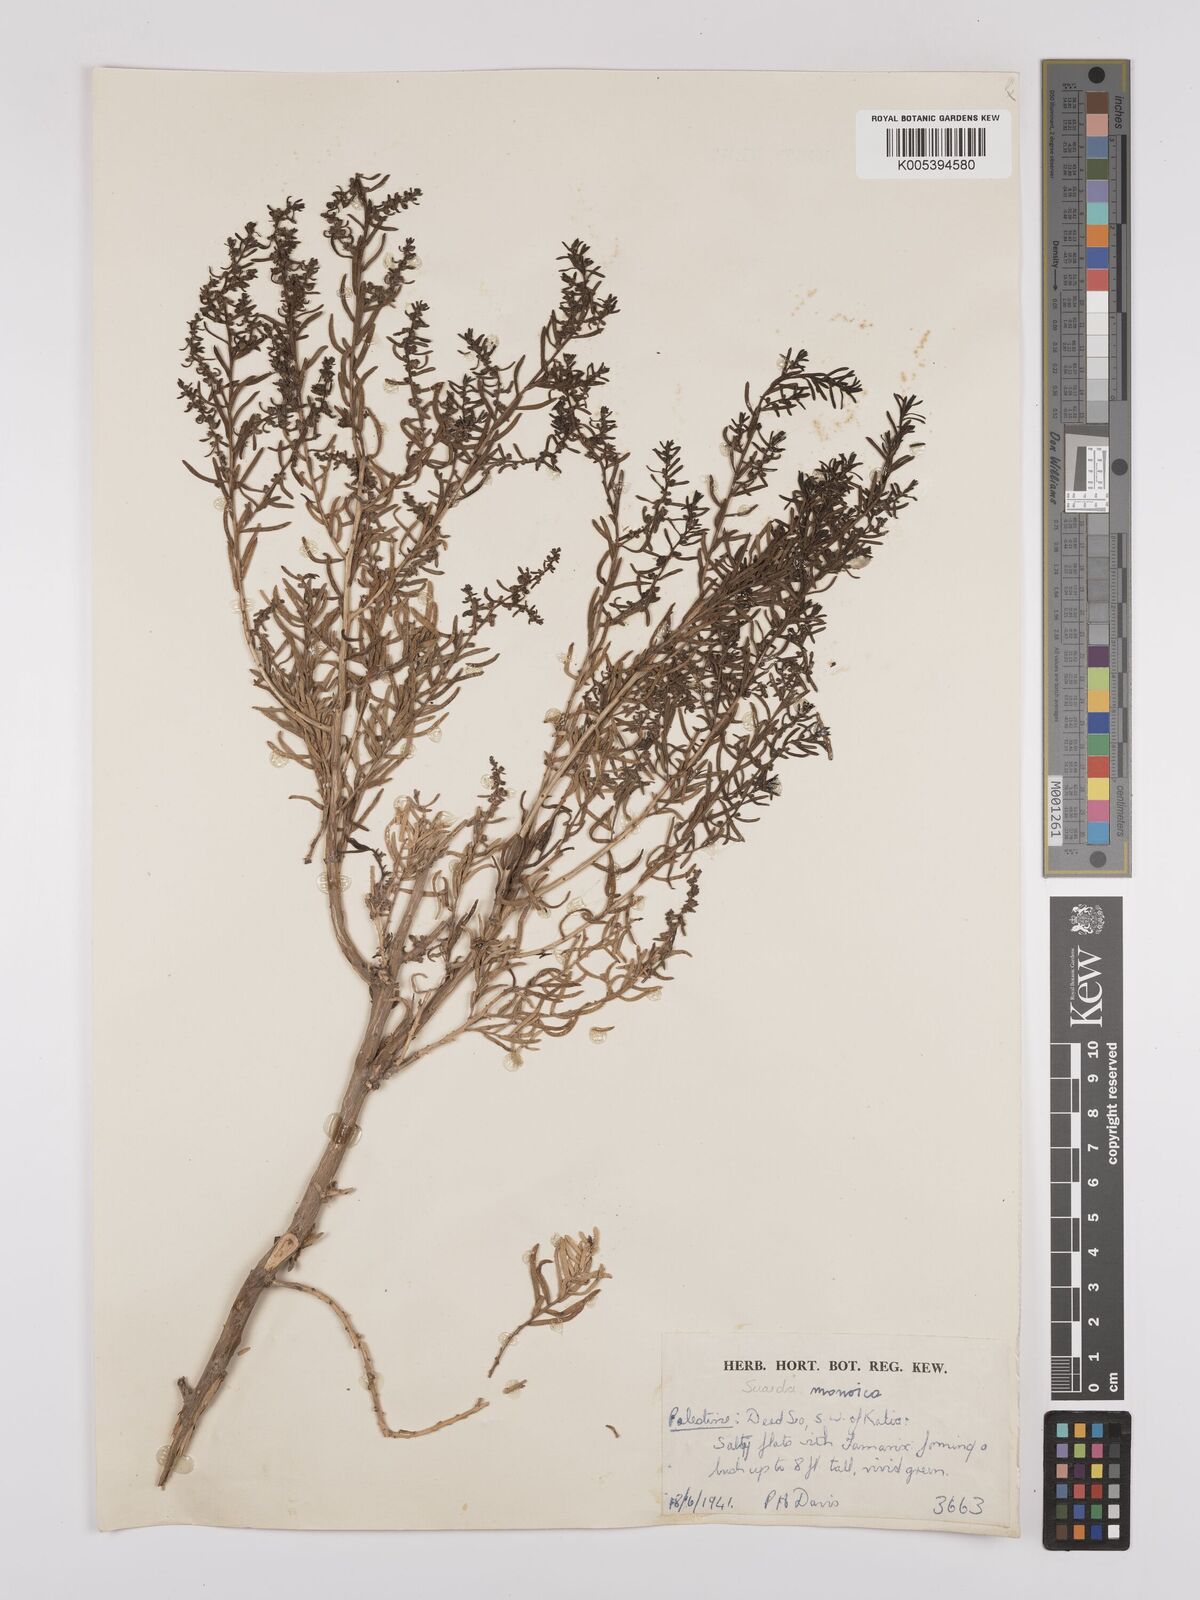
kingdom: Plantae
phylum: Tracheophyta
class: Magnoliopsida
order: Caryophyllales
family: Amaranthaceae
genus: Suaeda
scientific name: Suaeda
